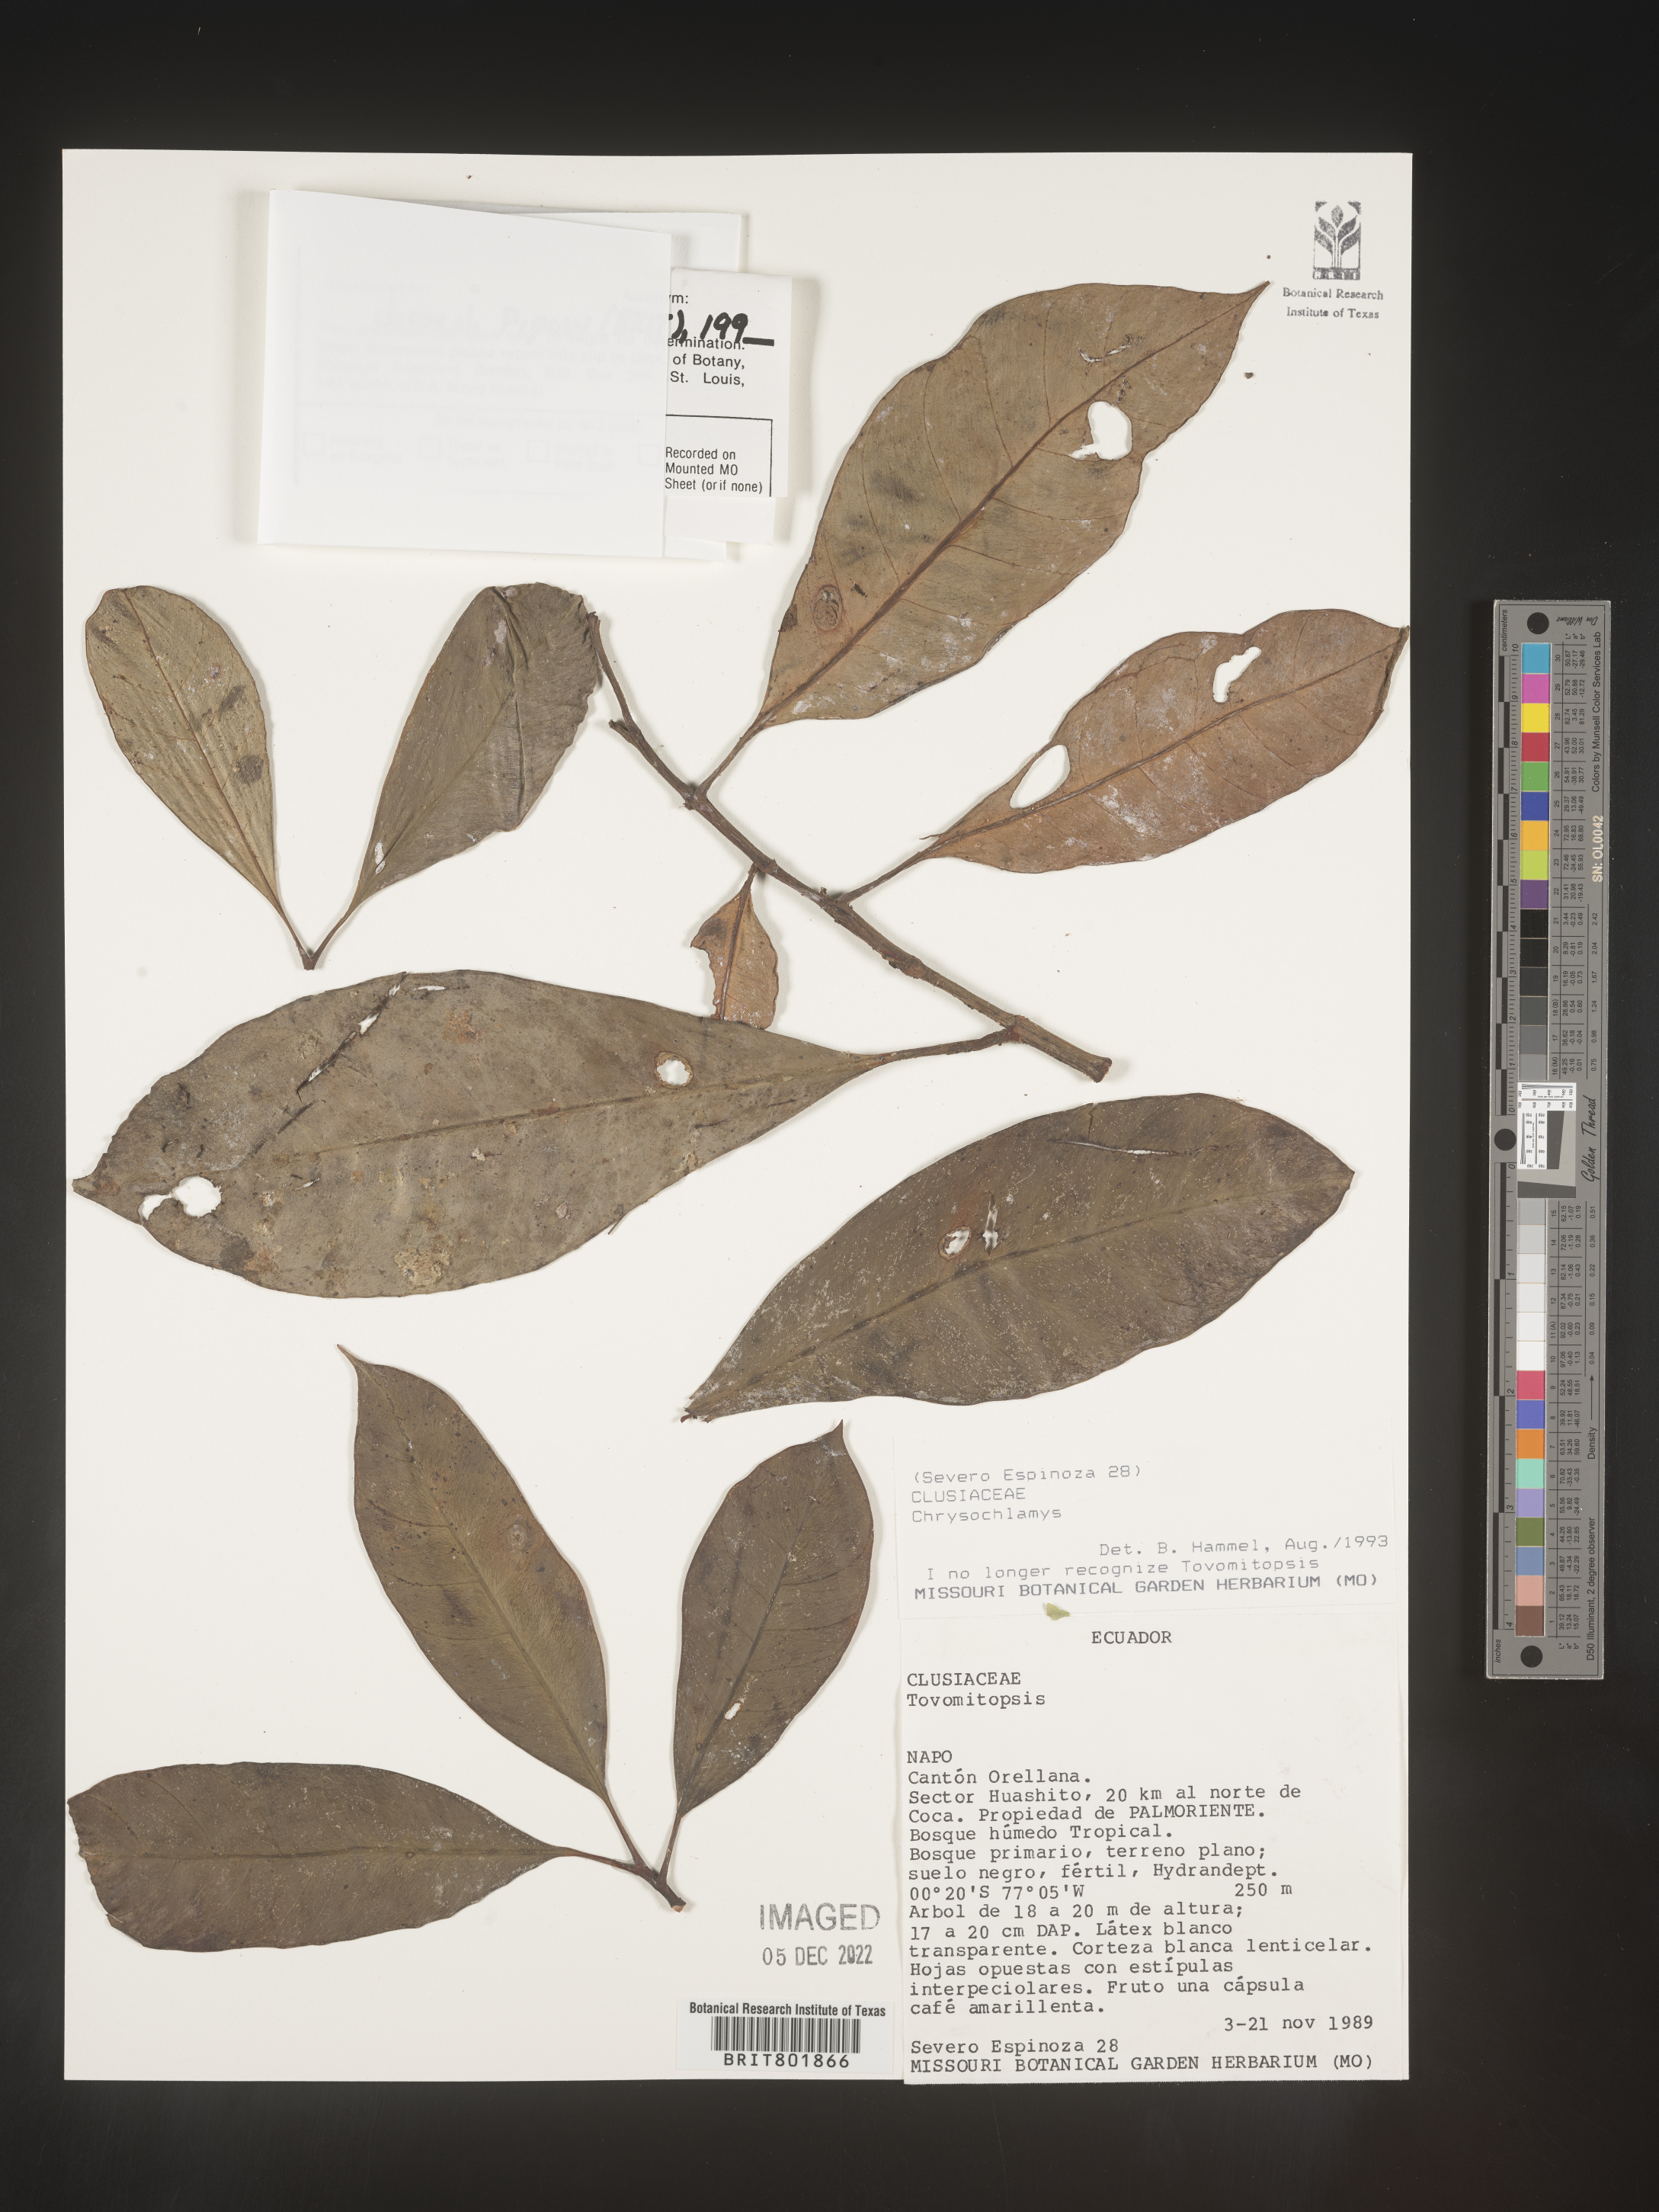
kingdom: Plantae
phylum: Tracheophyta
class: Magnoliopsida
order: Malpighiales
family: Clusiaceae
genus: Chrysochlamys
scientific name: Chrysochlamys
